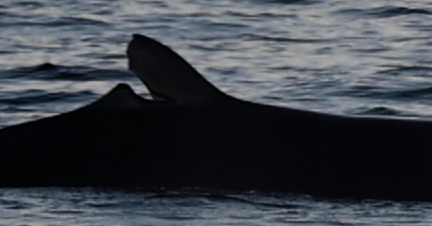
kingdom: Animalia
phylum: Chordata
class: Mammalia
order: Cetacea
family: Balaenopteridae
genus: Balaenoptera
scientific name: Balaenoptera edeni
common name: Bryde's whale
